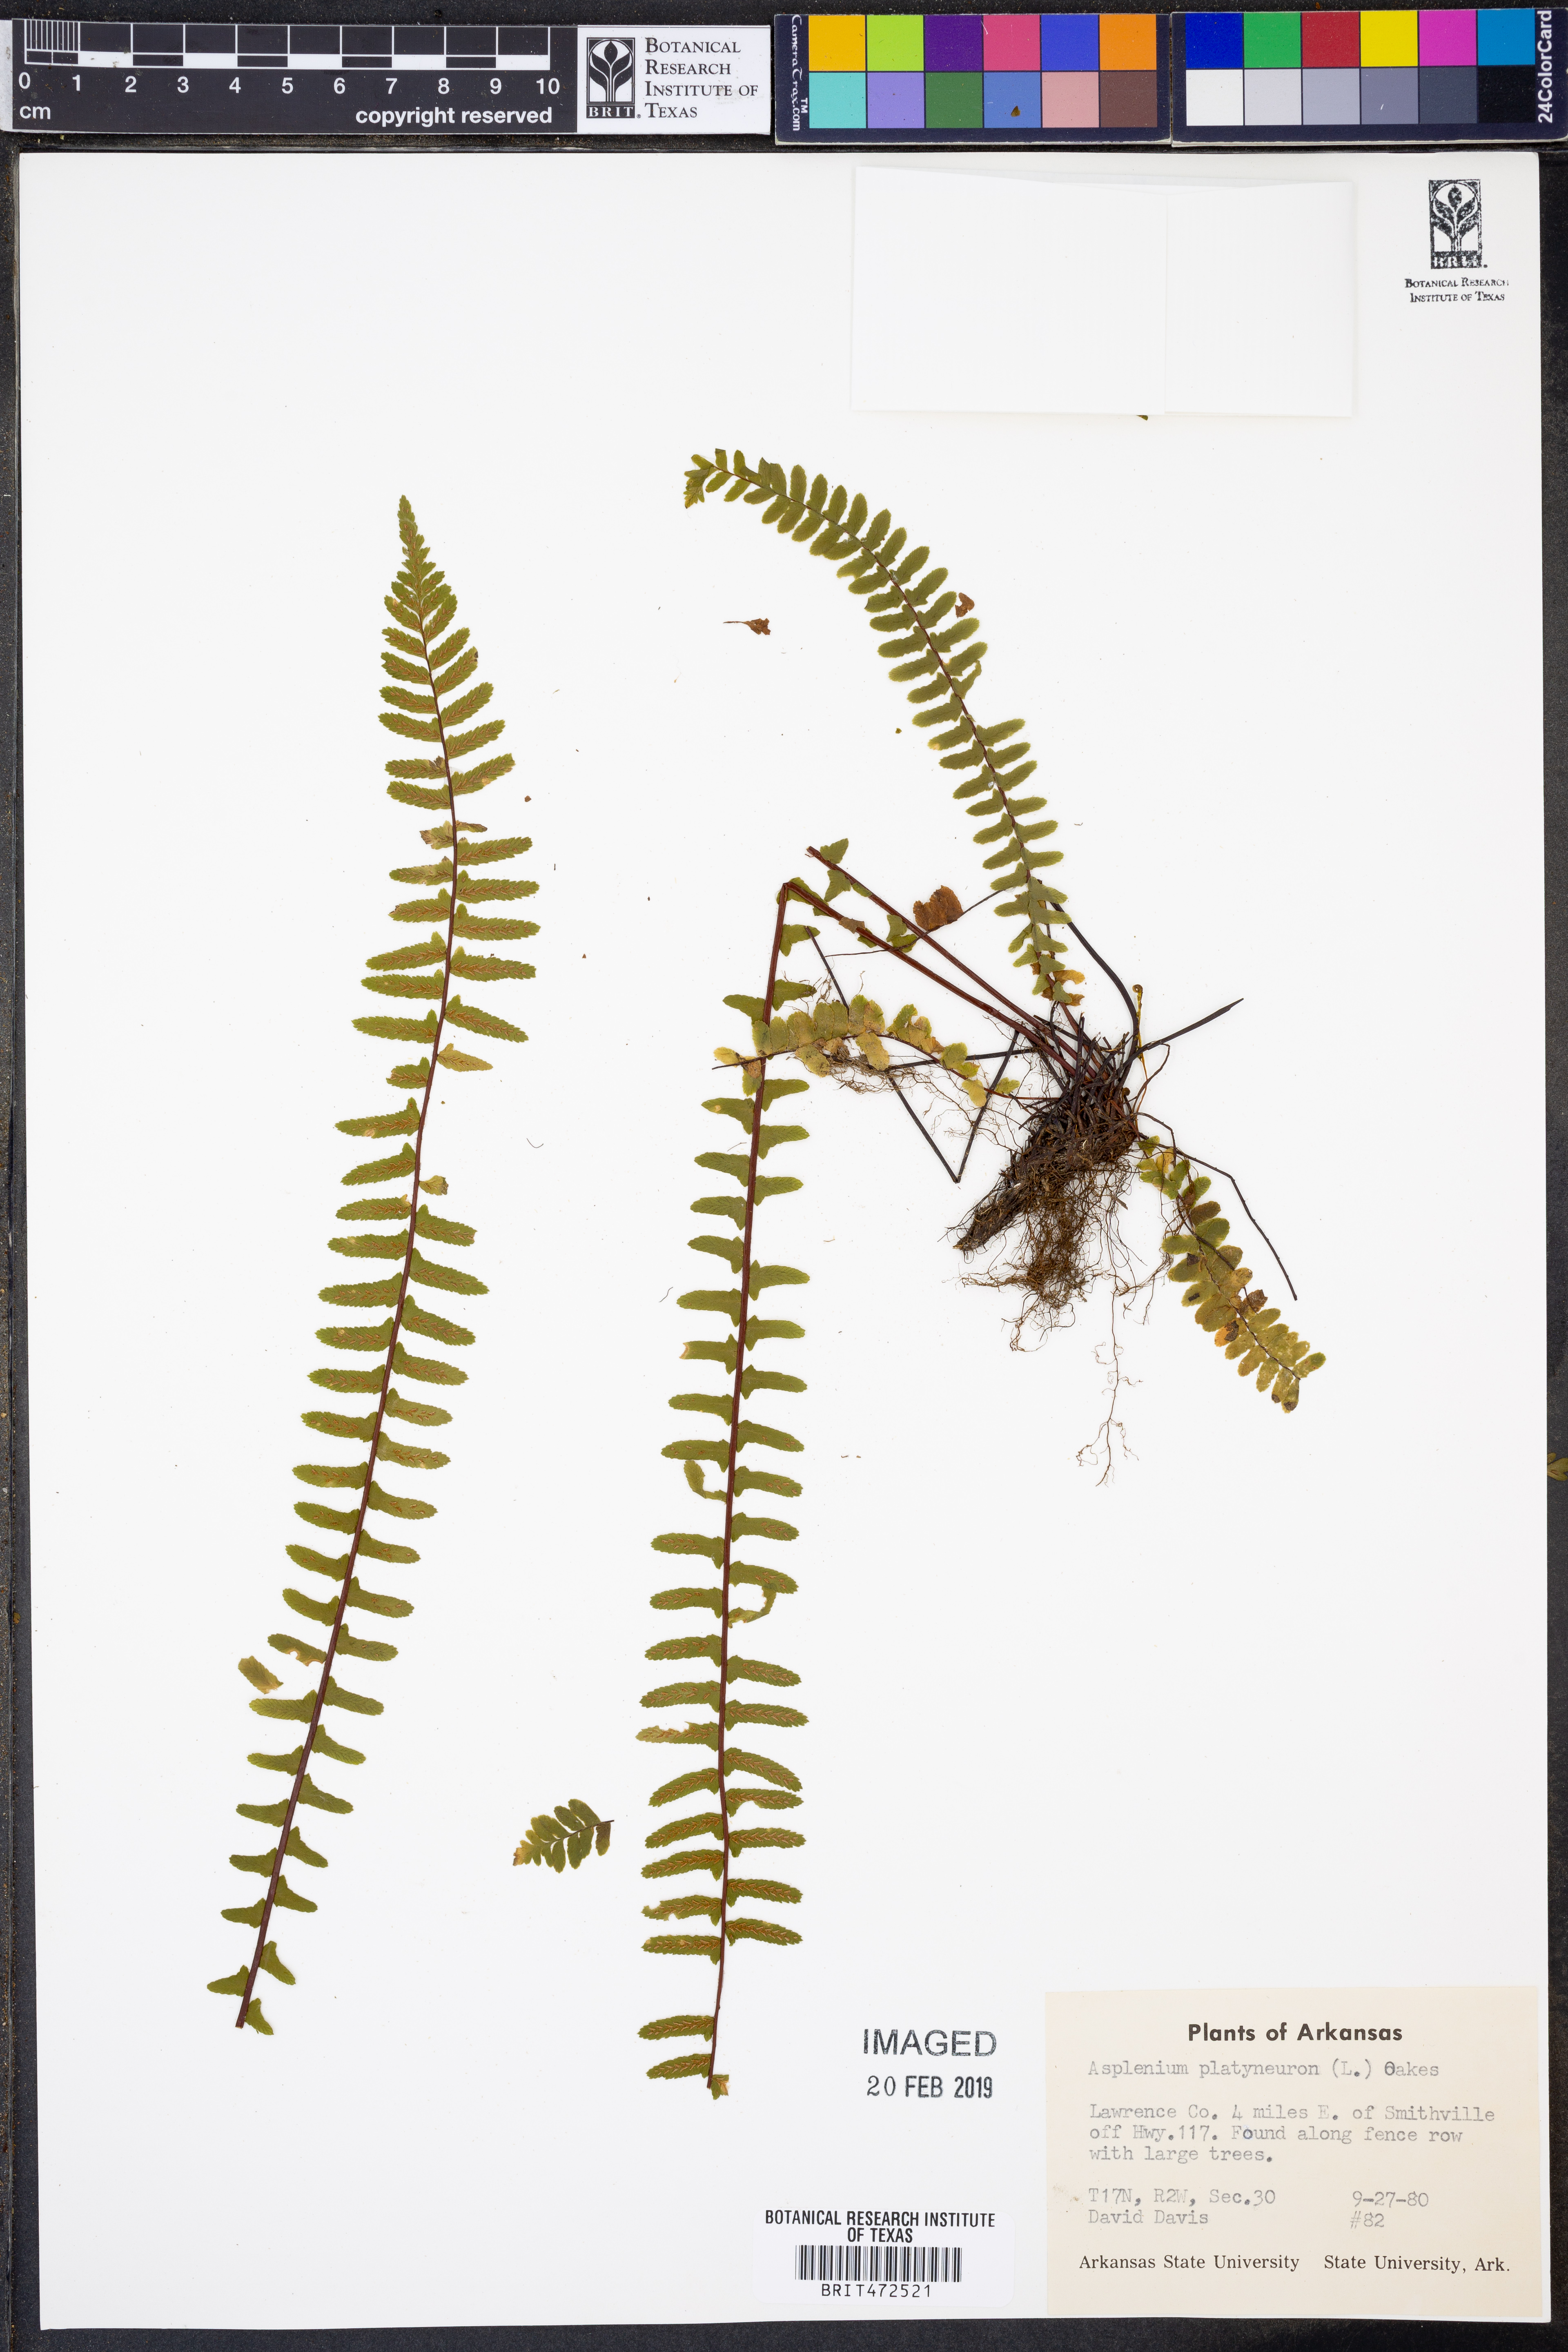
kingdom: Plantae
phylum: Tracheophyta
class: Polypodiopsida
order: Polypodiales
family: Aspleniaceae
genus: Asplenium
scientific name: Asplenium platyneuron
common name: Ebony spleenwort
